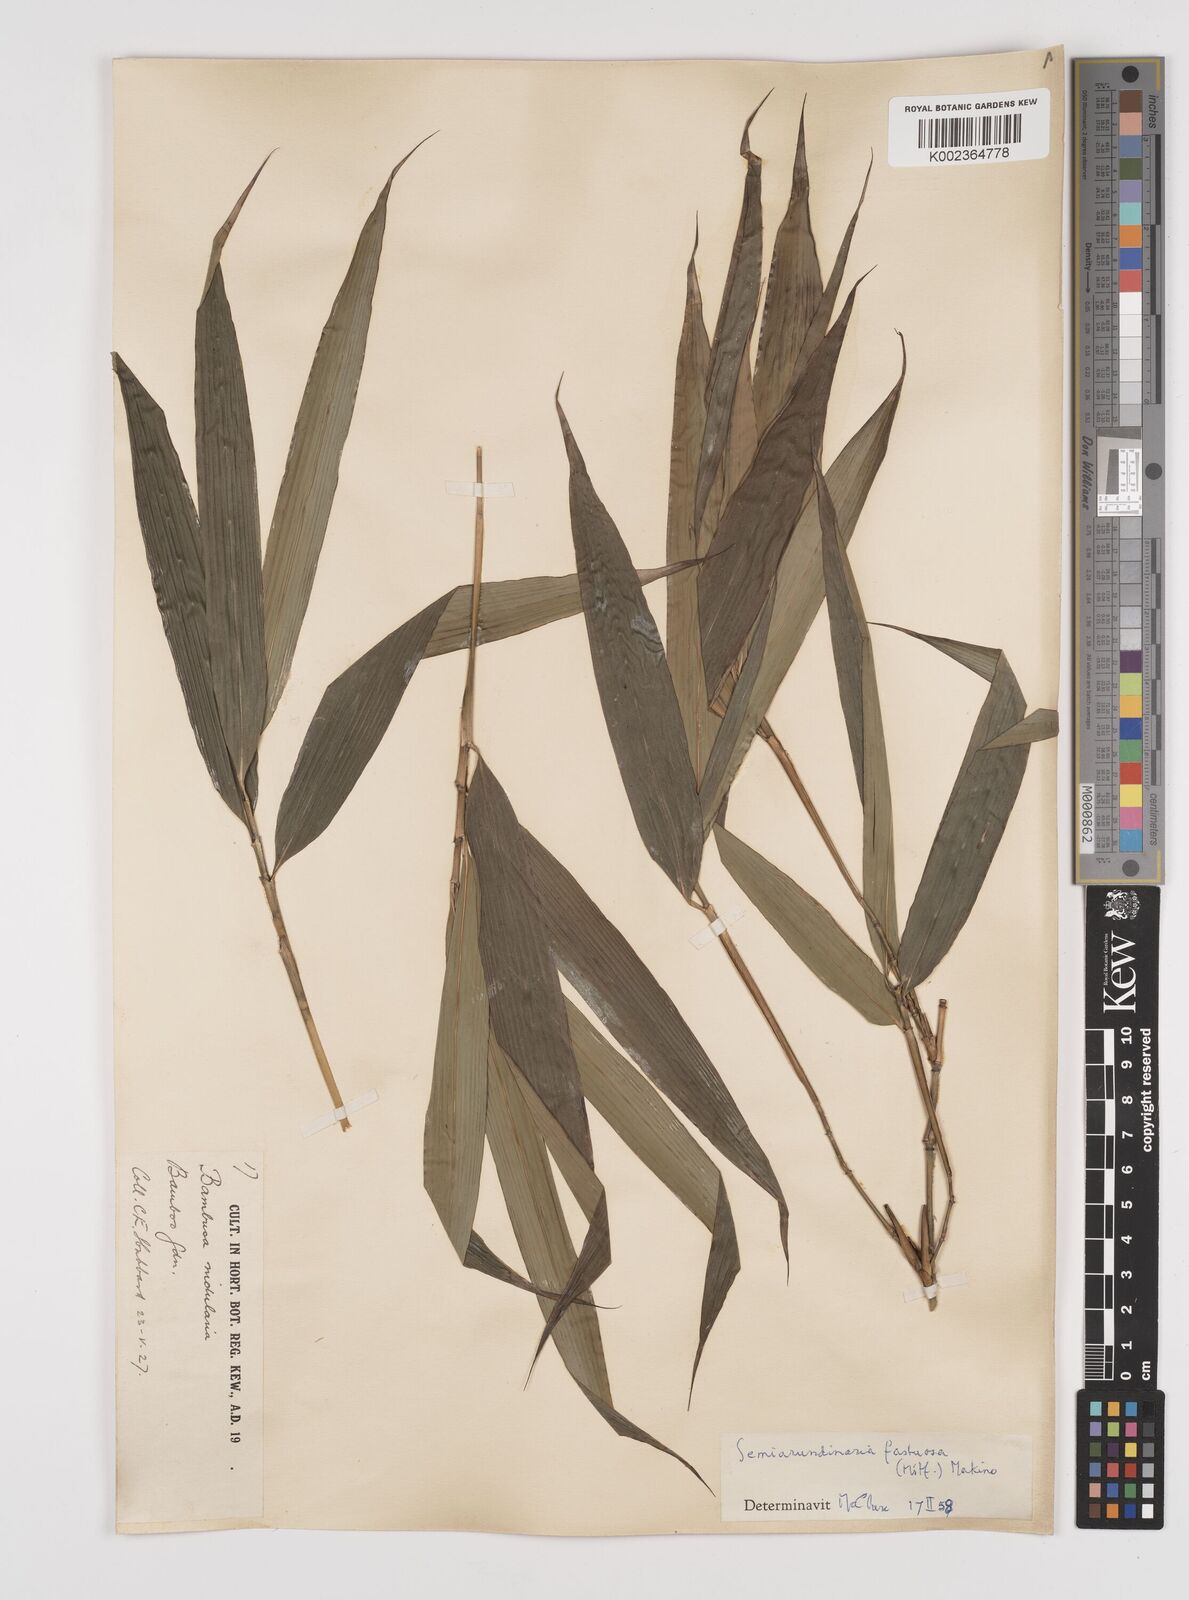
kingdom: Plantae
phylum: Tracheophyta
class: Liliopsida
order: Poales
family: Poaceae
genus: Semiarundinaria
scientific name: Semiarundinaria fastuosa
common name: Narihira bamboo
